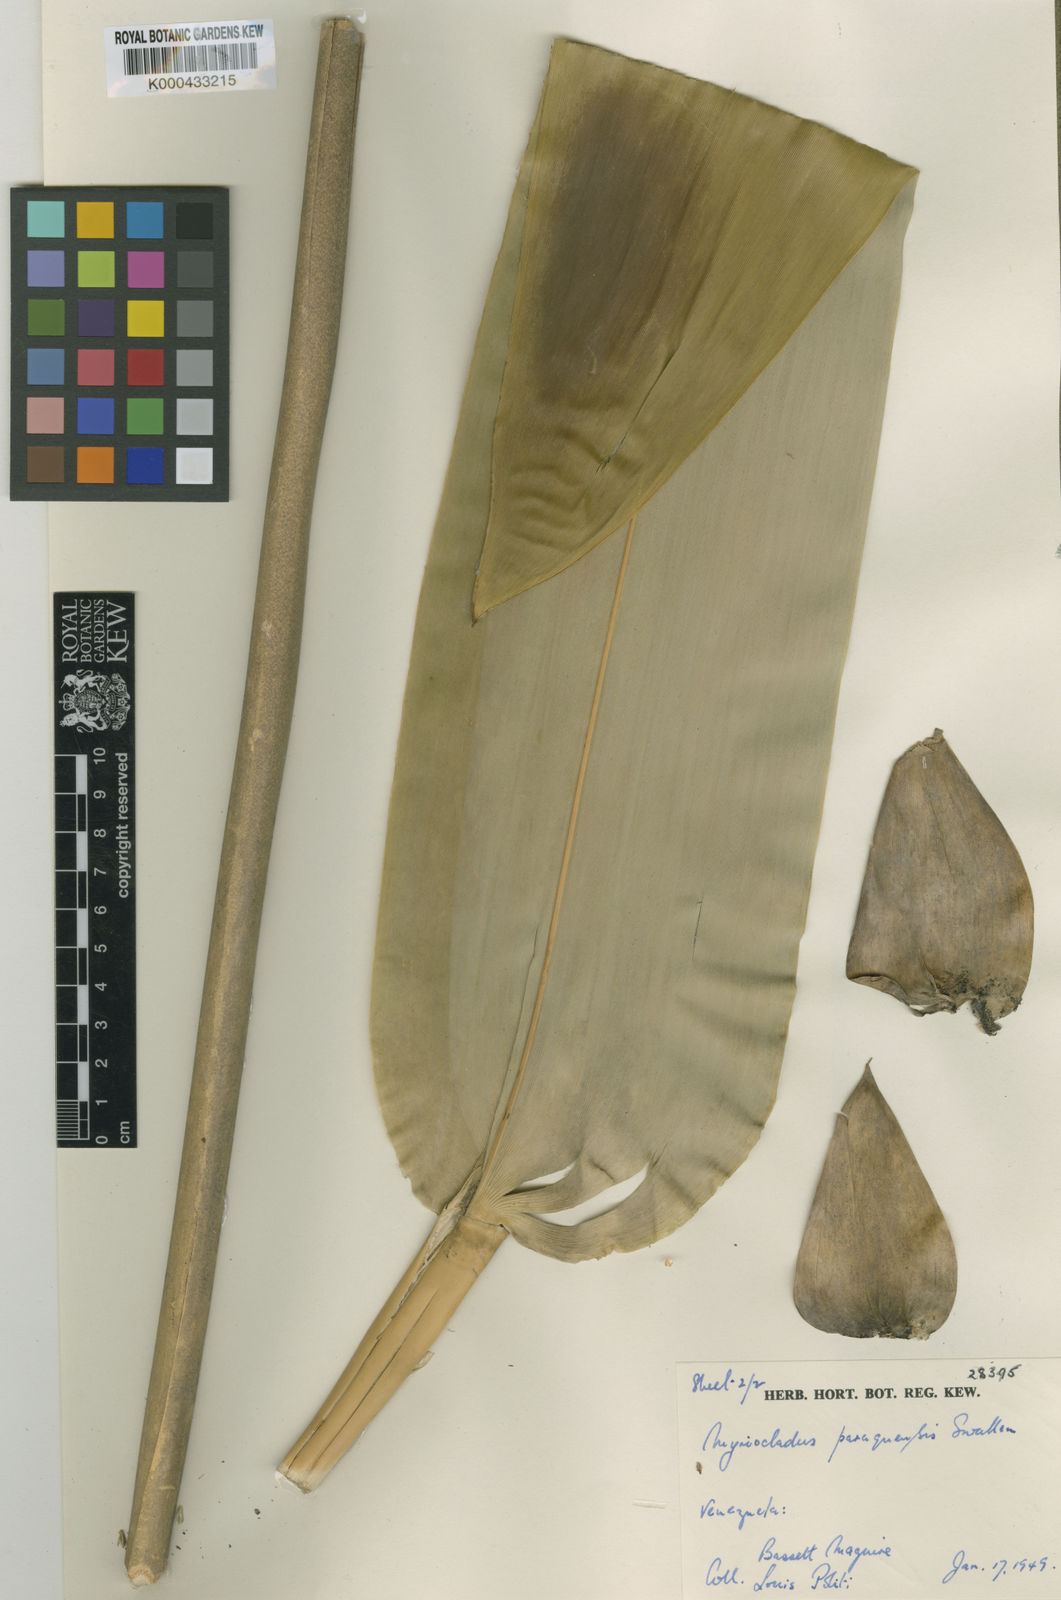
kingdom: Plantae
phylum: Tracheophyta
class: Liliopsida
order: Poales
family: Poaceae
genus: Myriocladus
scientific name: Myriocladus grandifolius
